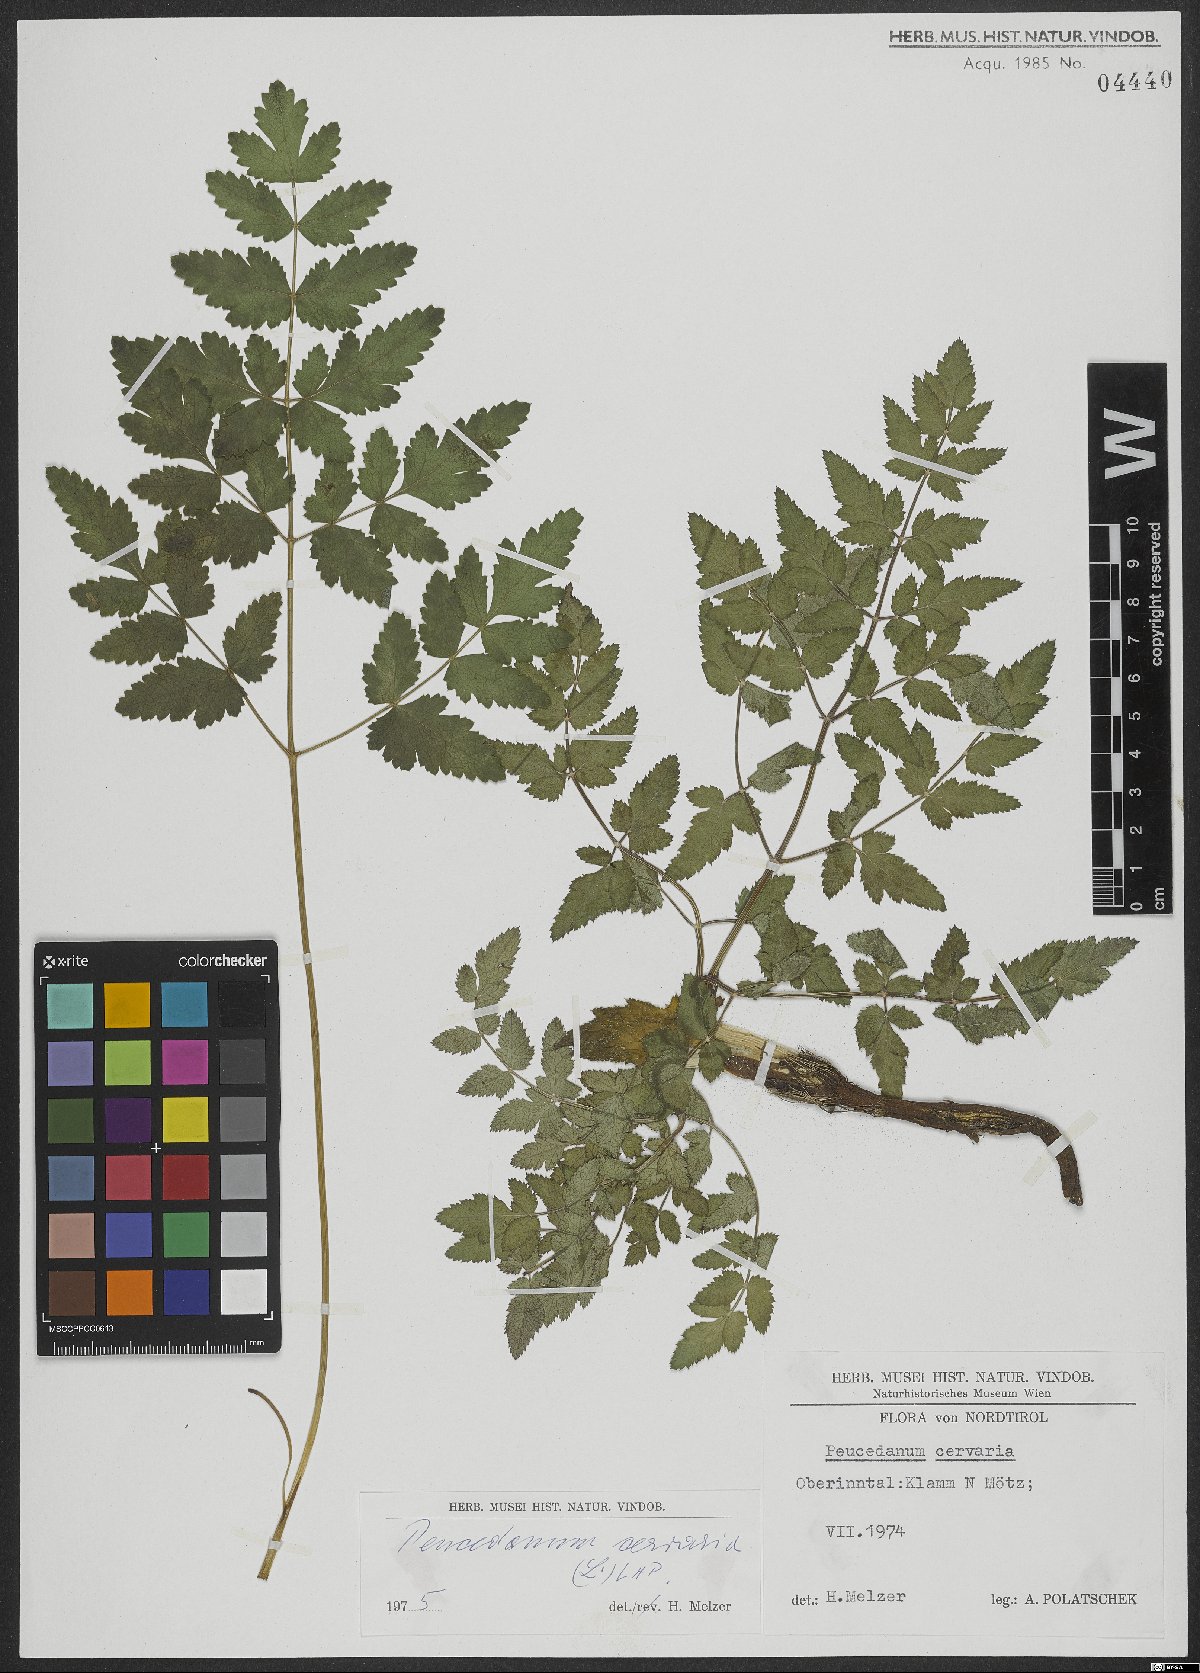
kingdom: Plantae
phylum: Tracheophyta
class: Magnoliopsida
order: Apiales
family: Apiaceae
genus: Cervaria
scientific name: Cervaria rivini
